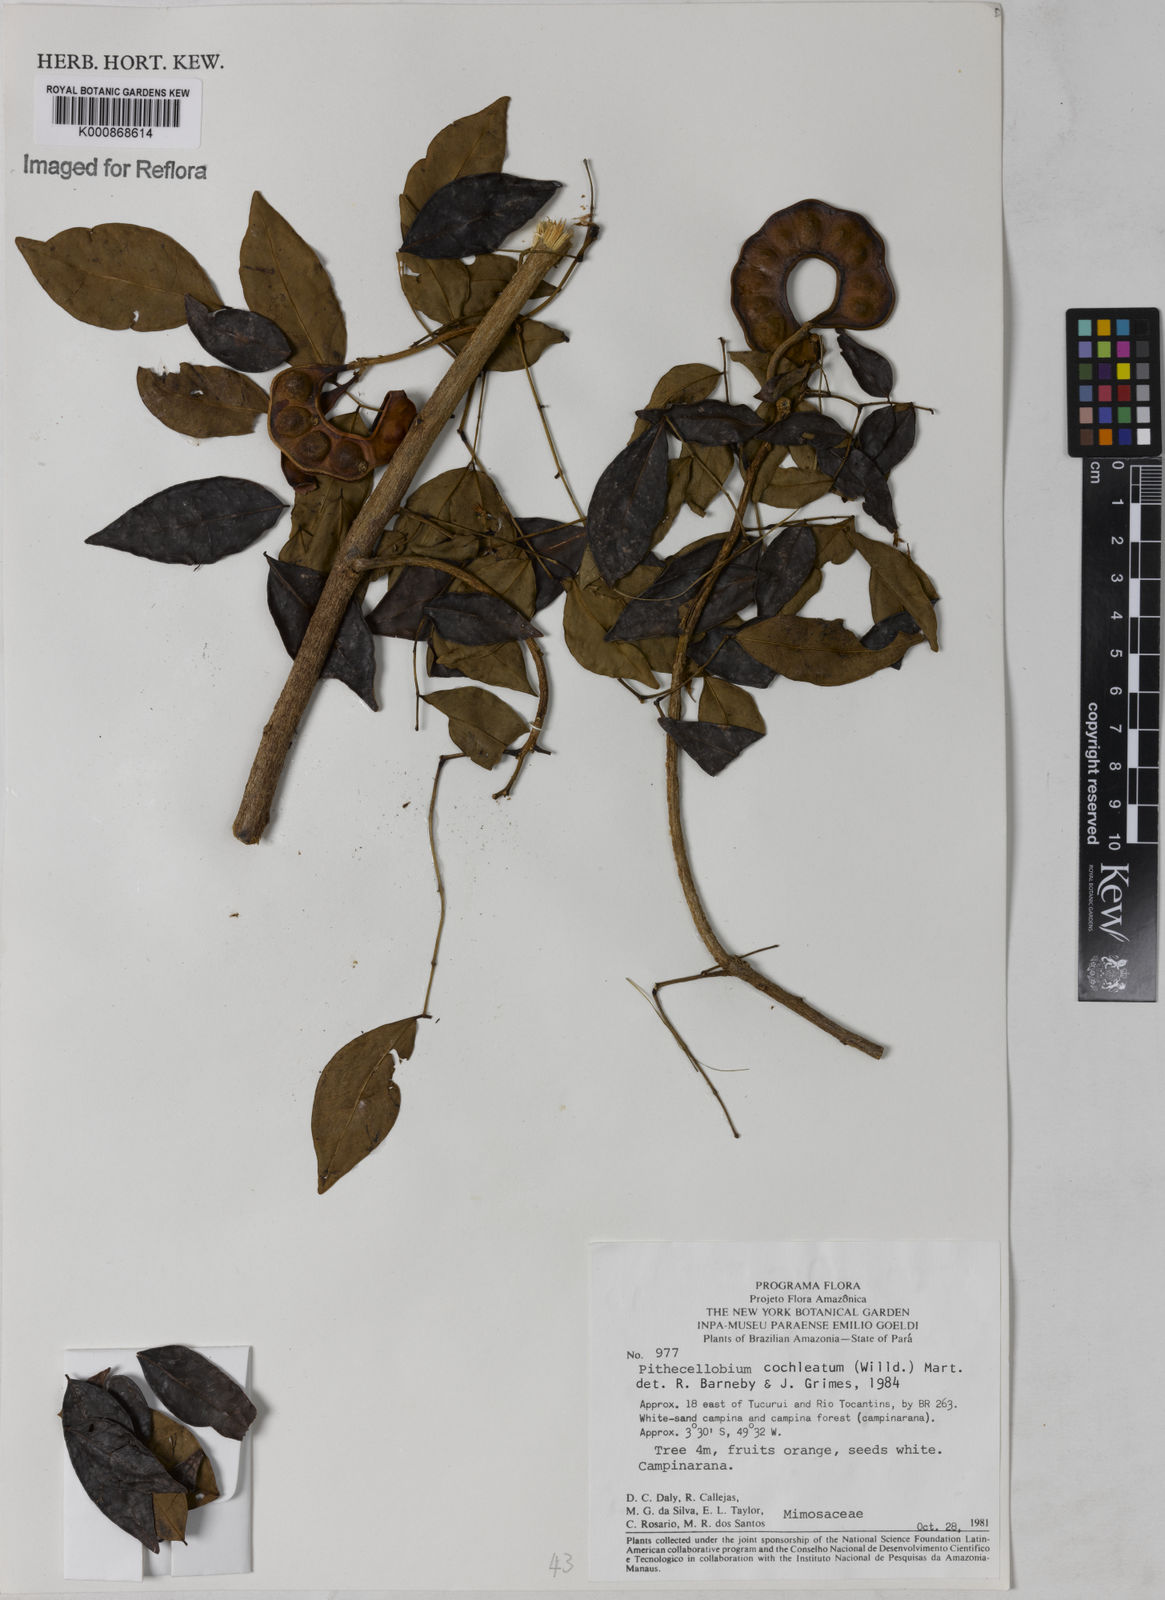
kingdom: Plantae
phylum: Tracheophyta
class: Magnoliopsida
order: Fabales
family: Fabaceae
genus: Jupunba
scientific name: Jupunba cochleata
